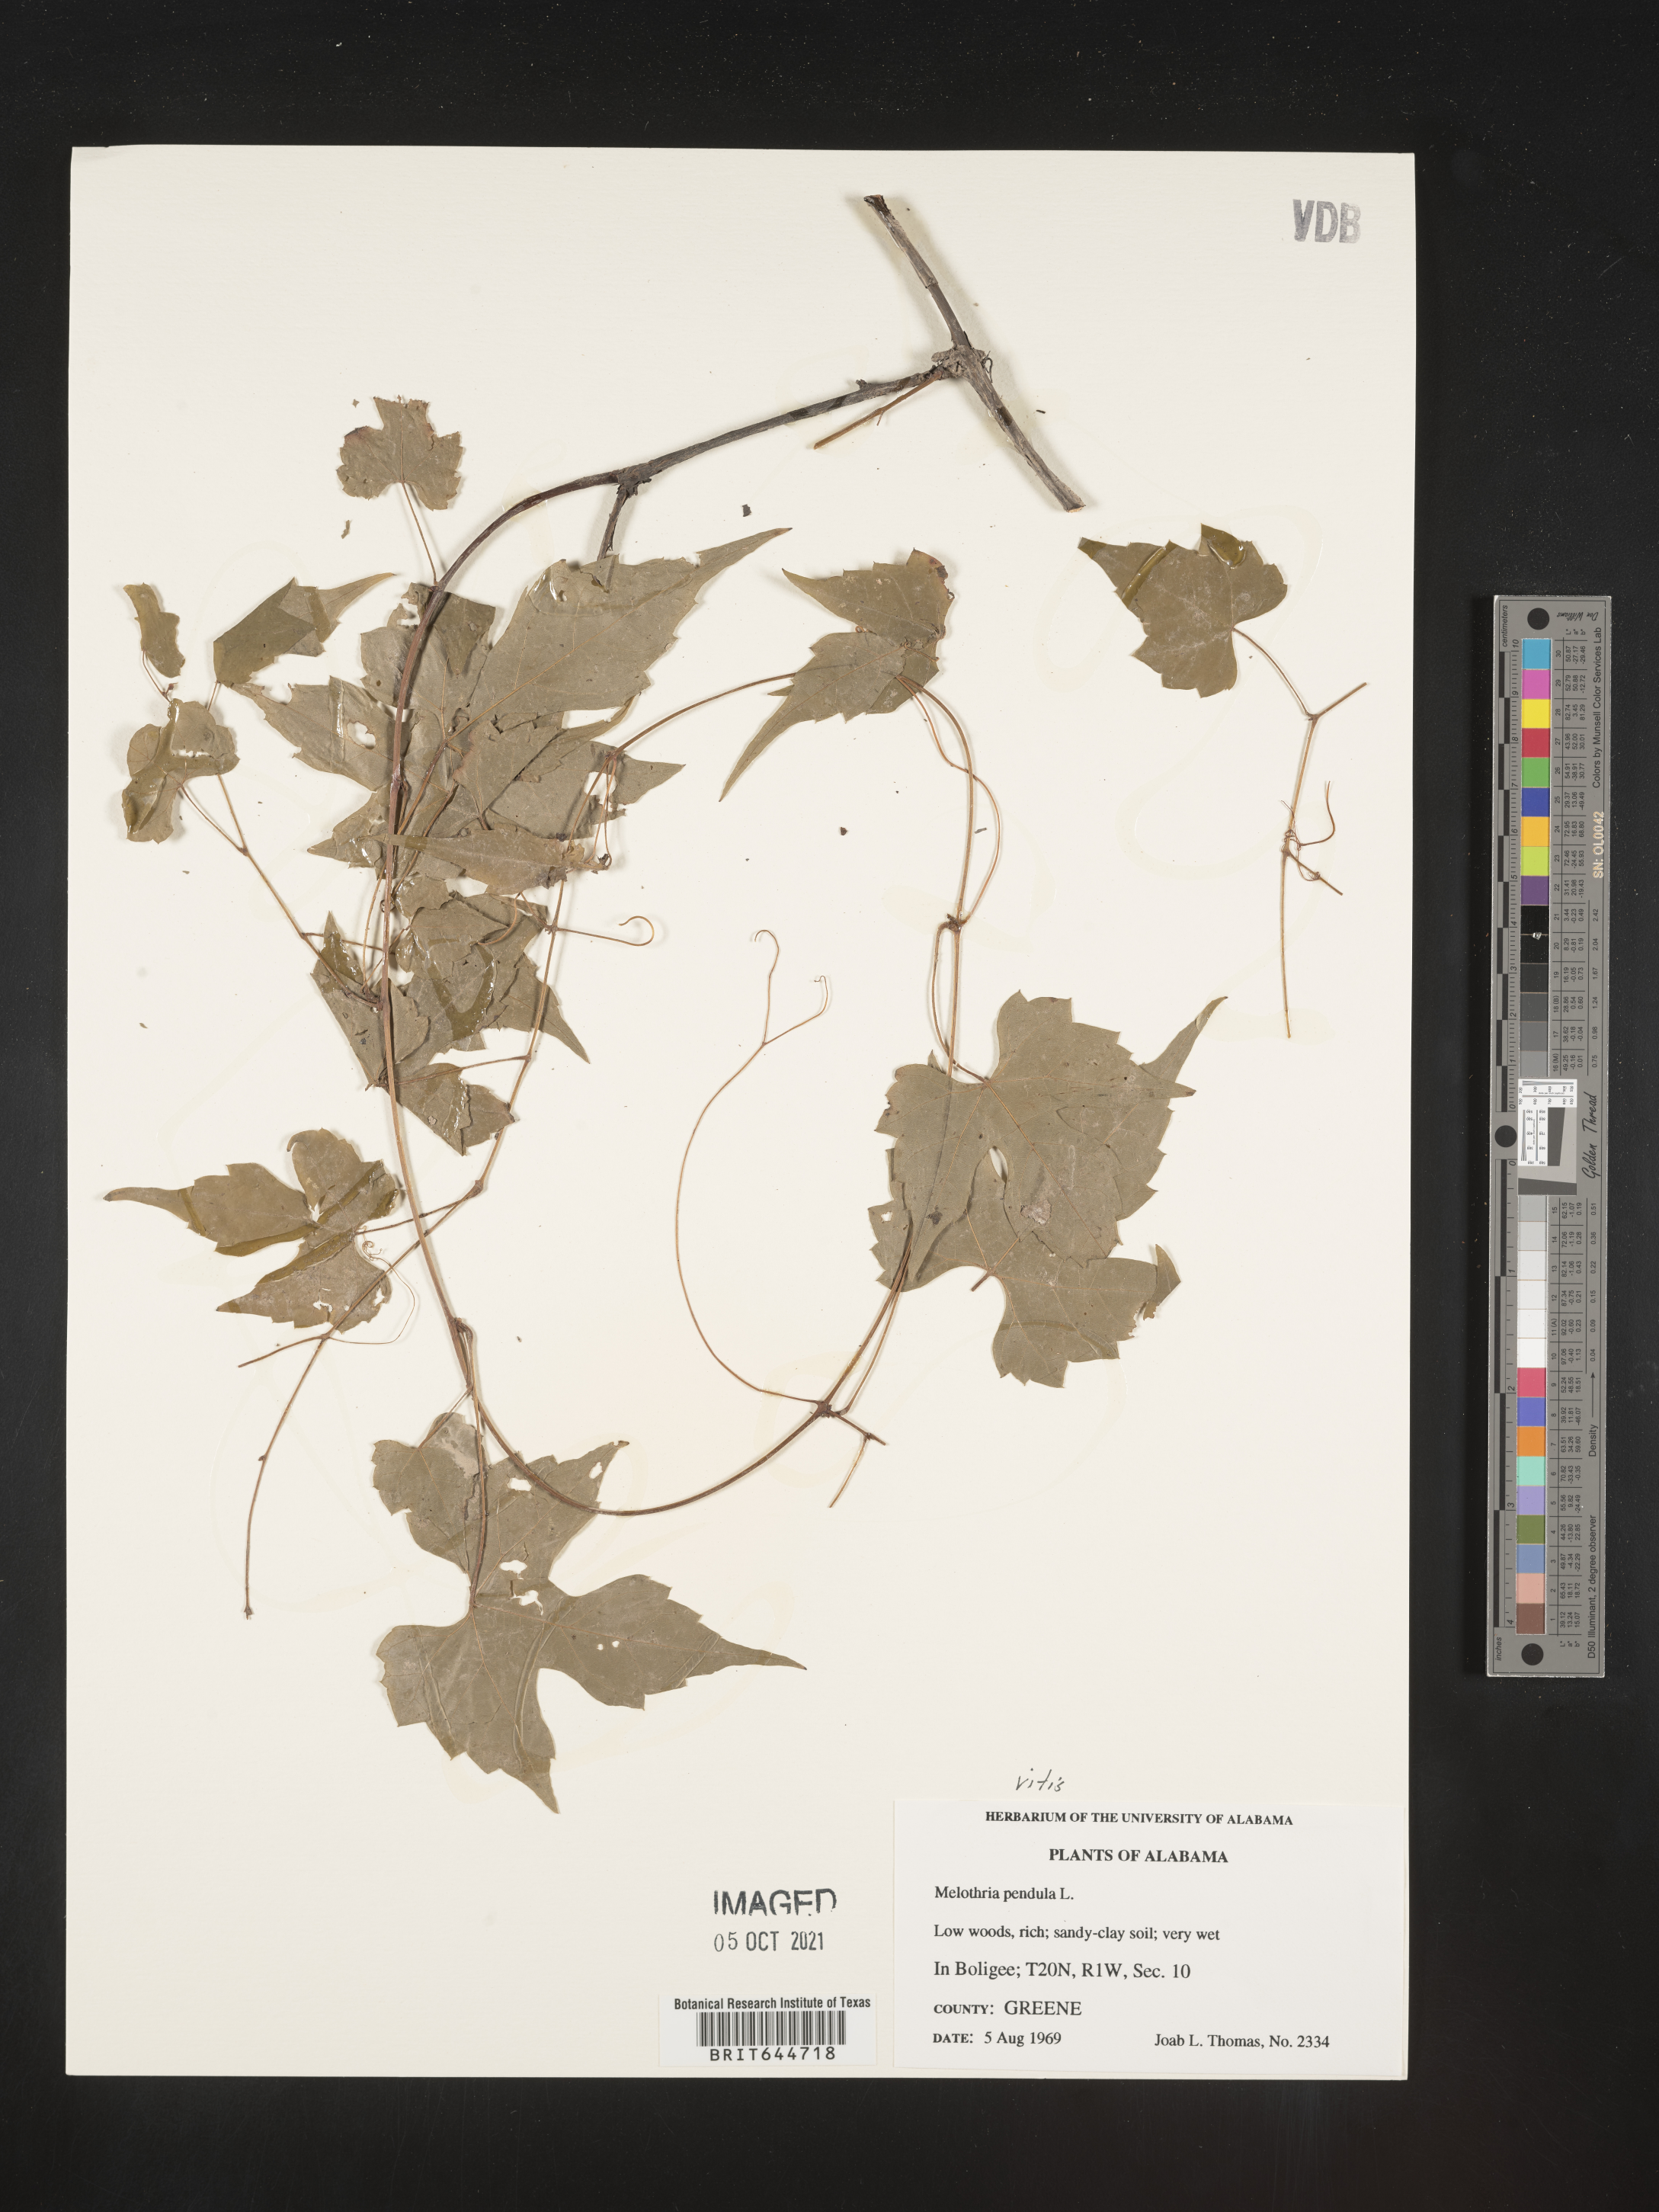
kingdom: Plantae
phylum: Tracheophyta
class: Magnoliopsida
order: Vitales
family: Vitaceae
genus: Vitis
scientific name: Vitis
